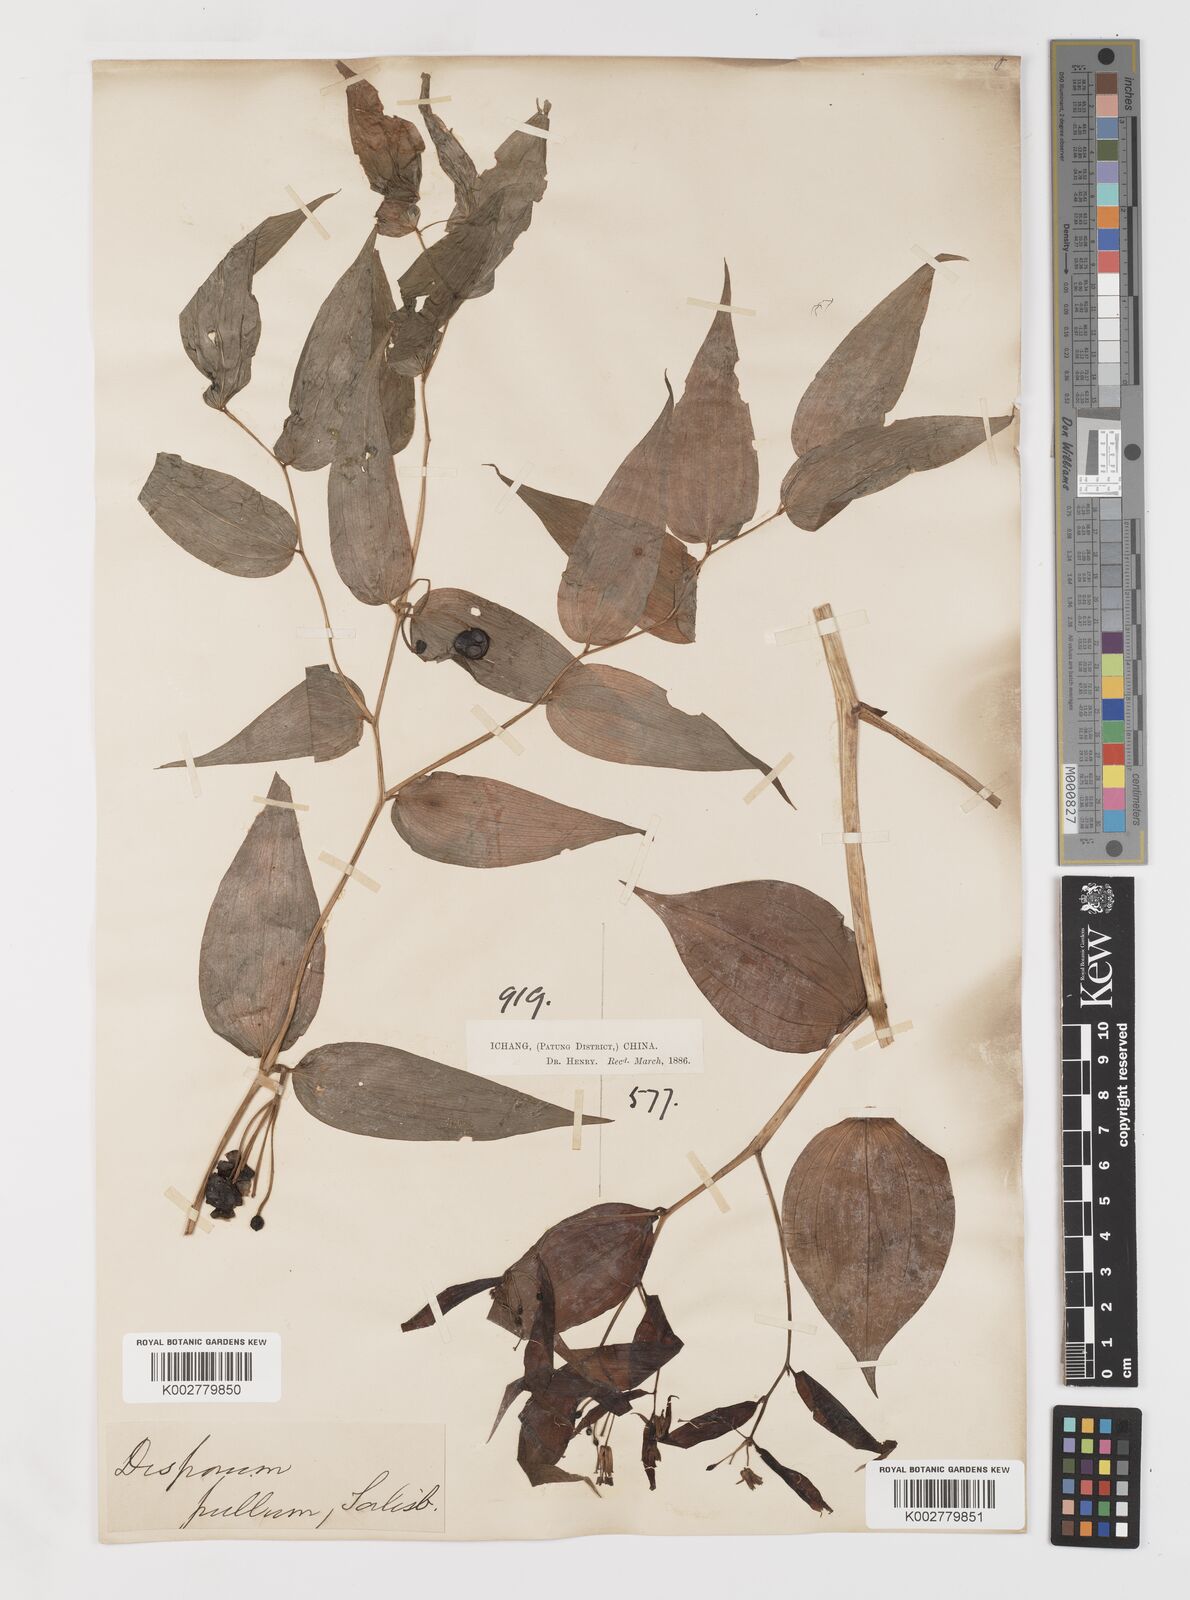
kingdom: Plantae
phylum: Tracheophyta
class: Liliopsida
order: Liliales
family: Colchicaceae
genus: Disporum
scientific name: Disporum sessile
